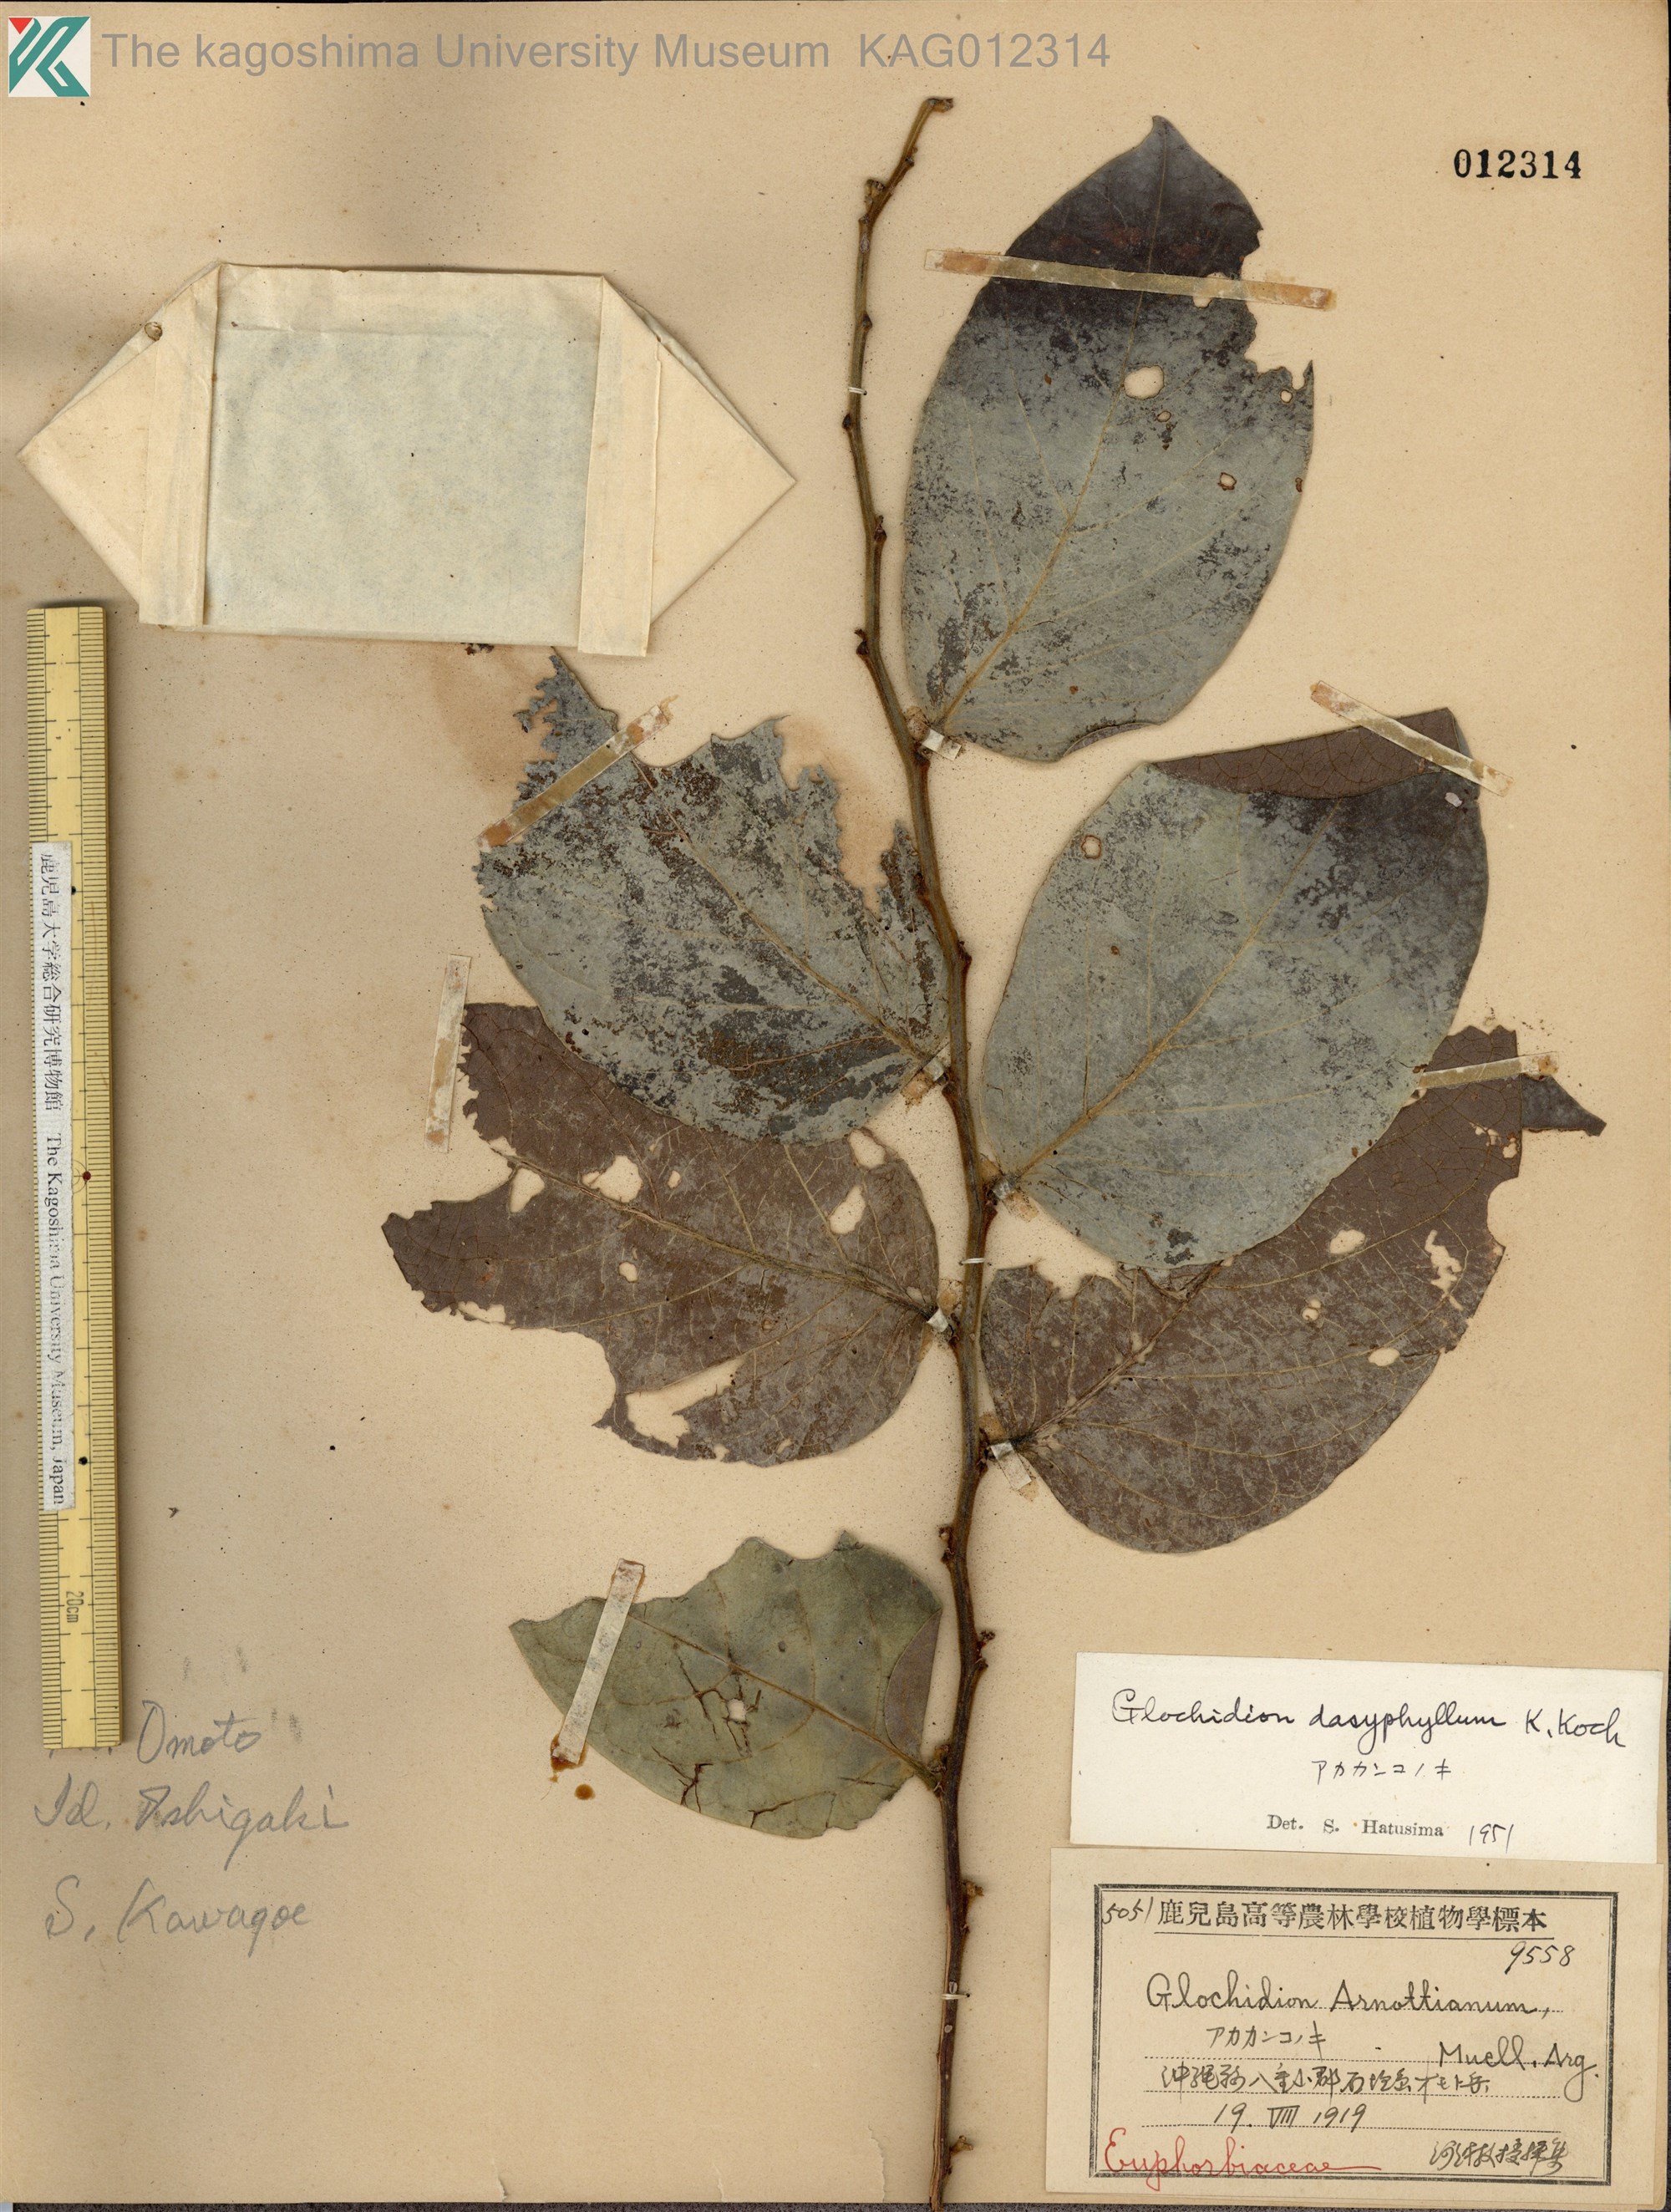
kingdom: Plantae
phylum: Tracheophyta
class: Magnoliopsida
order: Malpighiales
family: Phyllanthaceae
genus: Glochidion
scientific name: Glochidion zeylanicum
